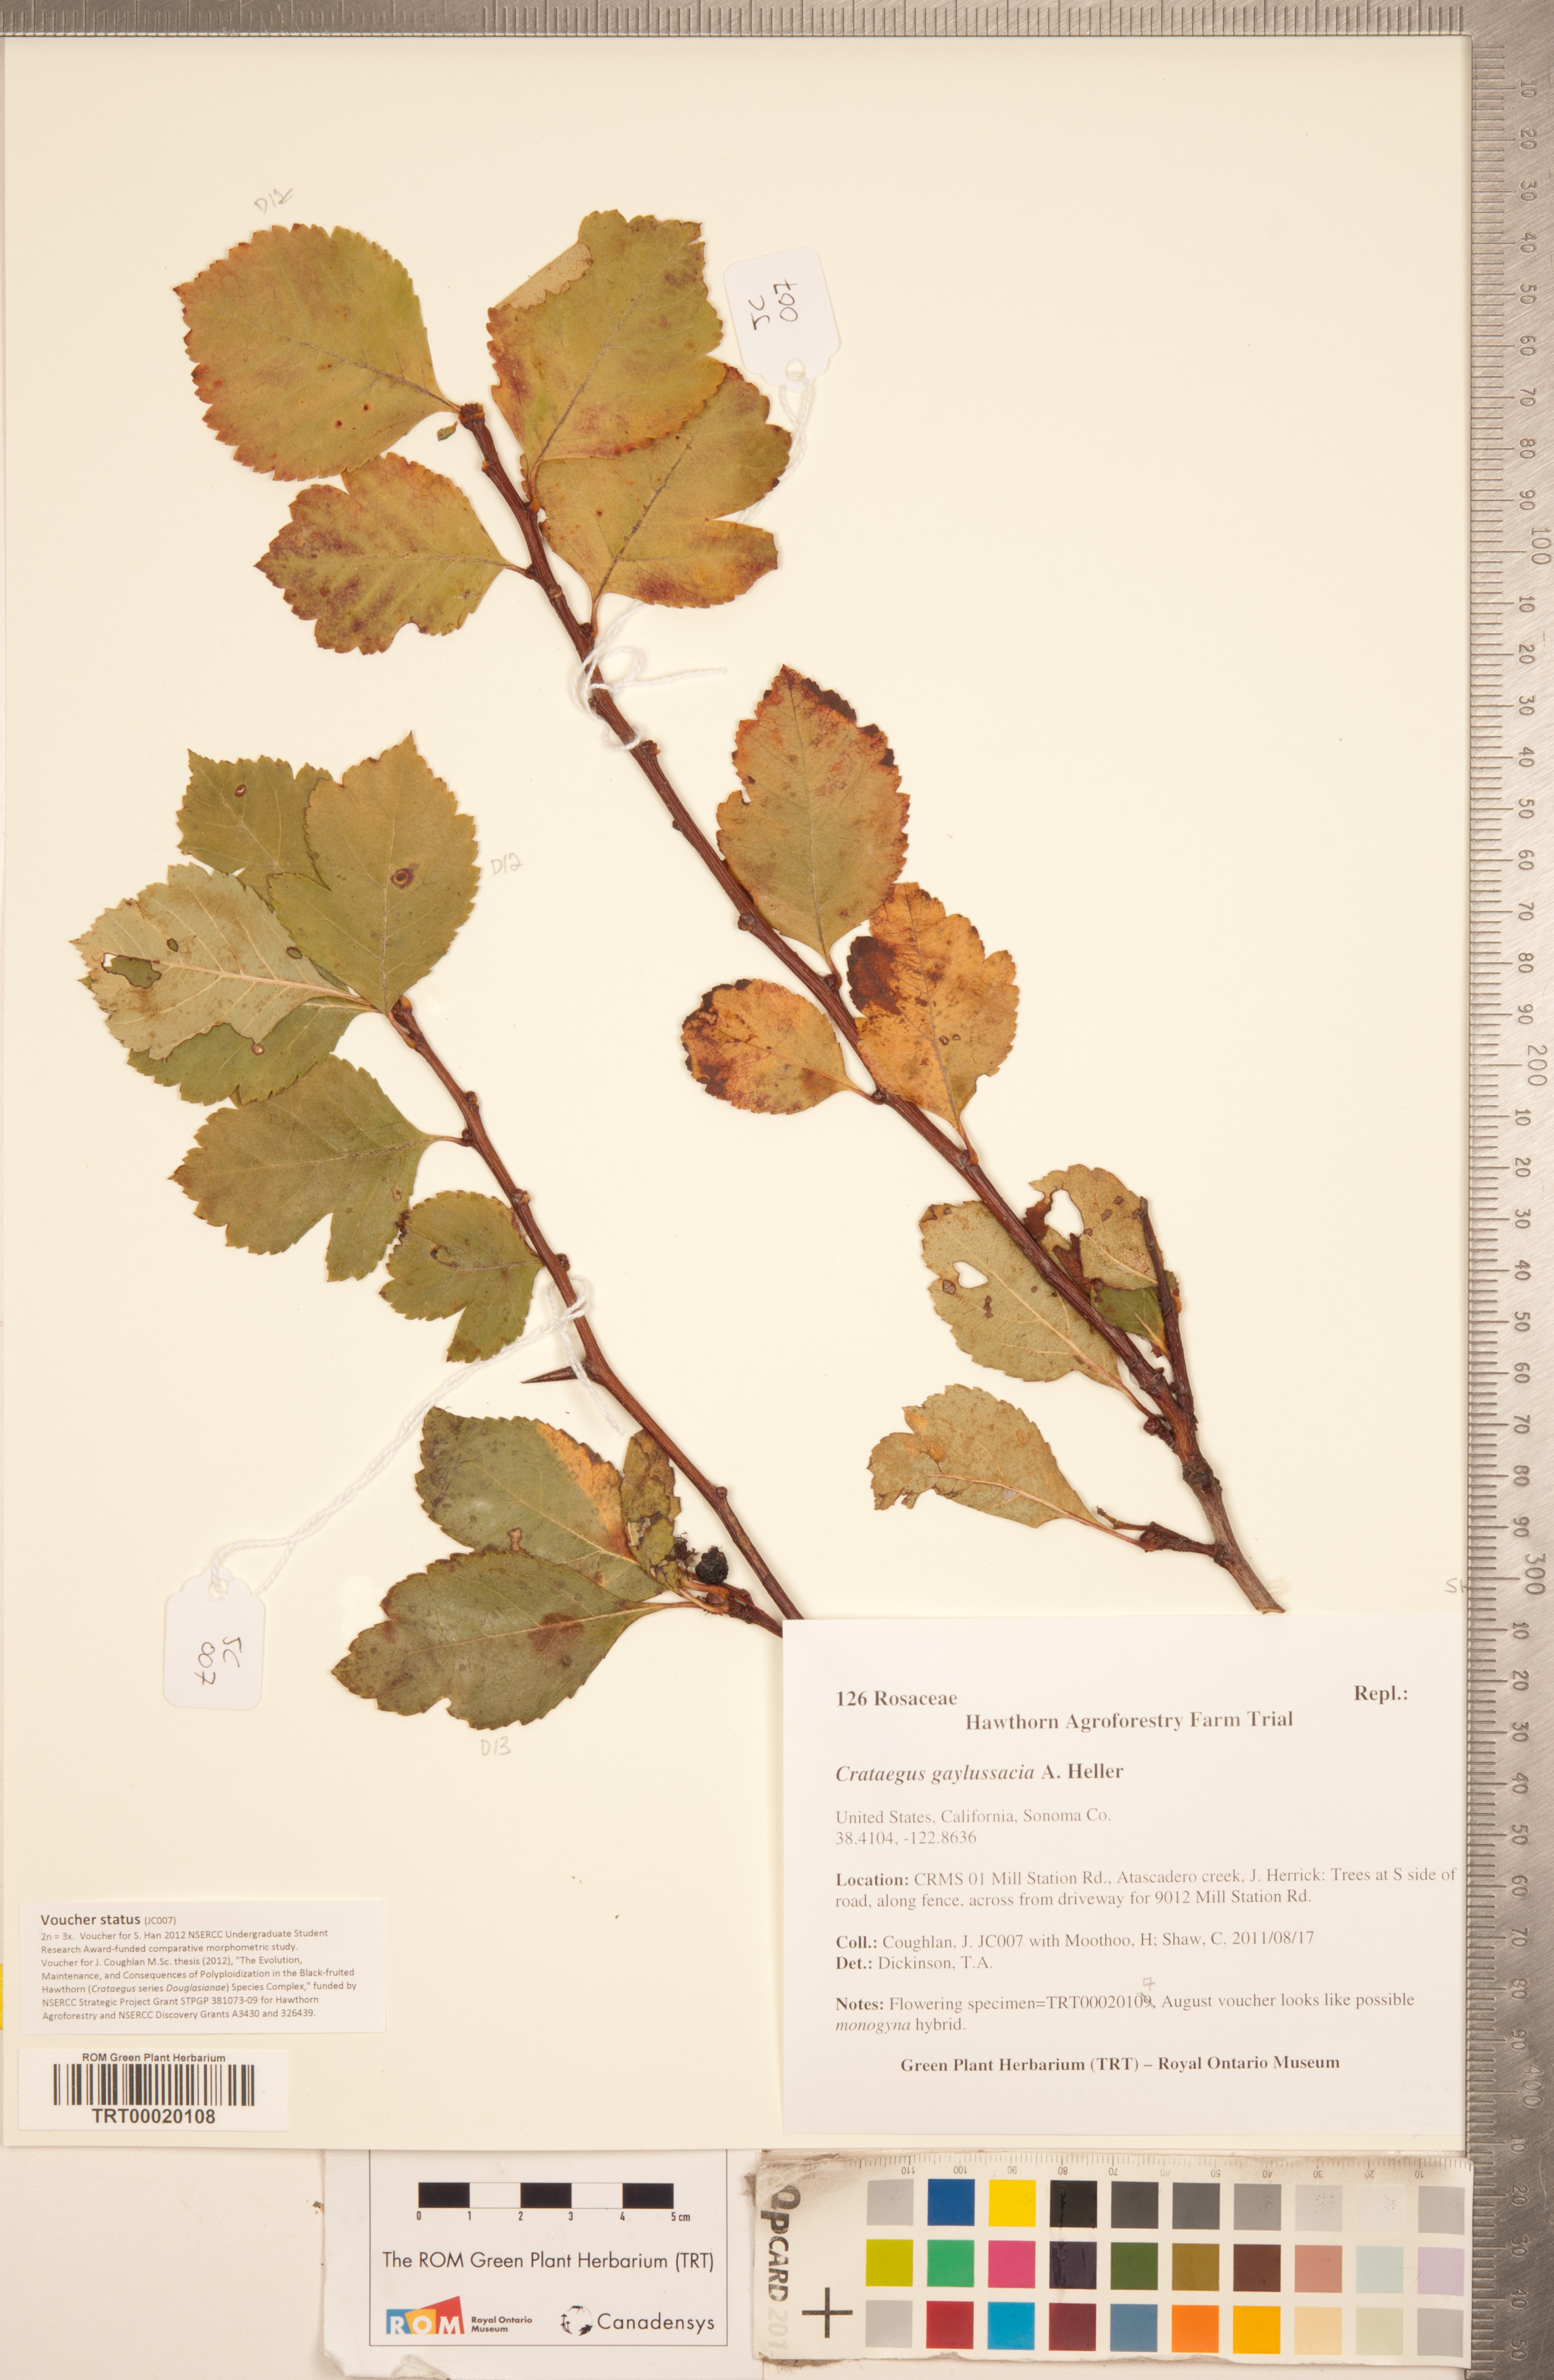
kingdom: Plantae
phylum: Tracheophyta
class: Magnoliopsida
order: Rosales
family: Rosaceae
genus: Crataegus
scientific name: Crataegus gaylussacia
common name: Huckleberry hawthorn
